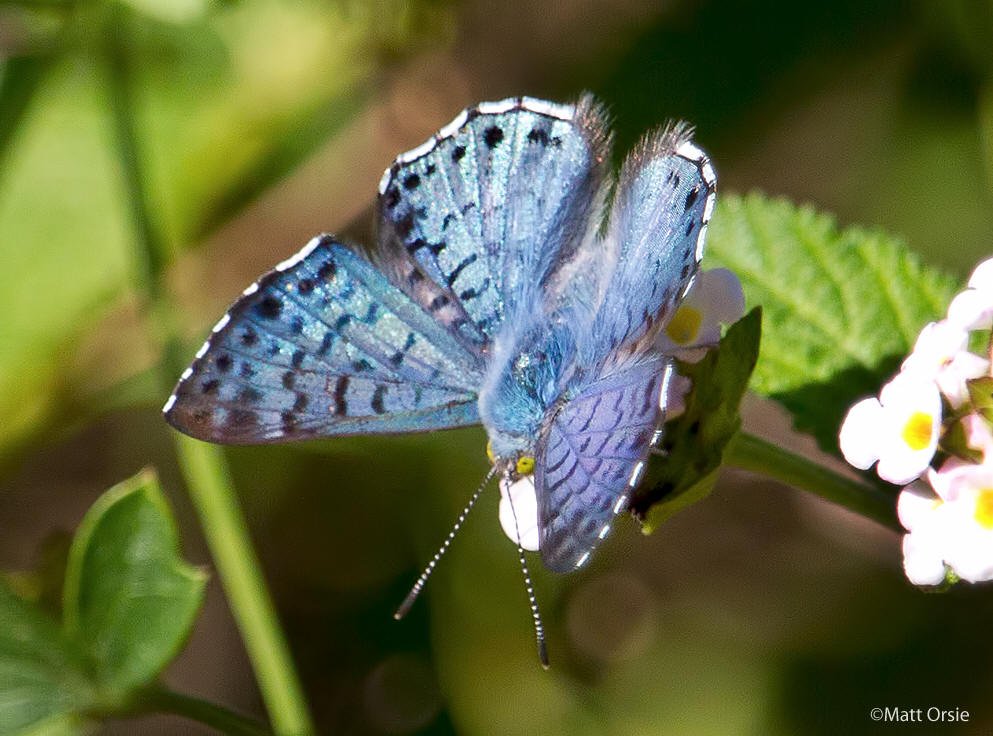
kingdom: Animalia
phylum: Arthropoda
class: Insecta
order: Lepidoptera
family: Riodinidae
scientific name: Riodinidae
